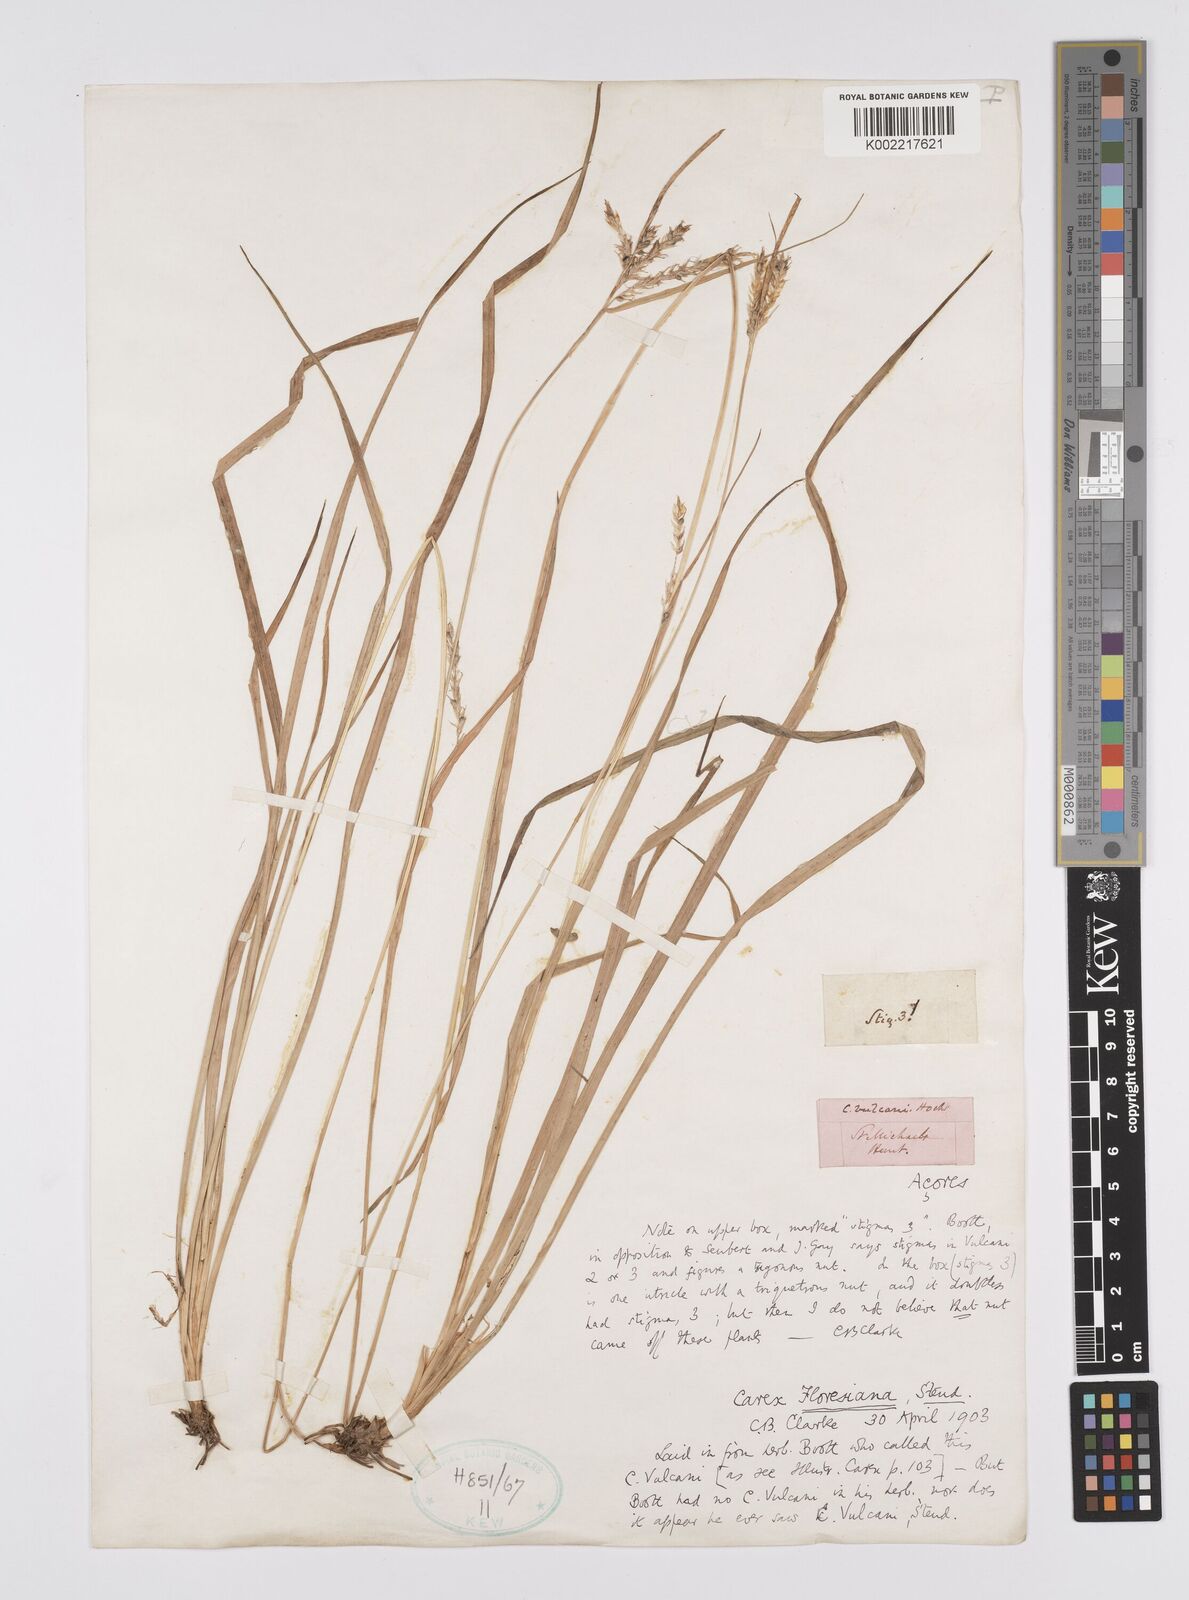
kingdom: Plantae
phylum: Tracheophyta
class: Liliopsida
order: Poales
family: Cyperaceae
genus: Carex
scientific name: Carex vulcani
